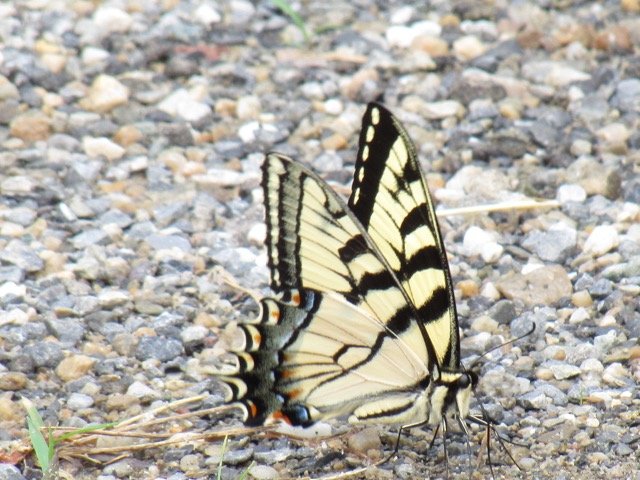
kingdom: Animalia
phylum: Arthropoda
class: Insecta
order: Lepidoptera
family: Papilionidae
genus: Pterourus
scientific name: Pterourus
